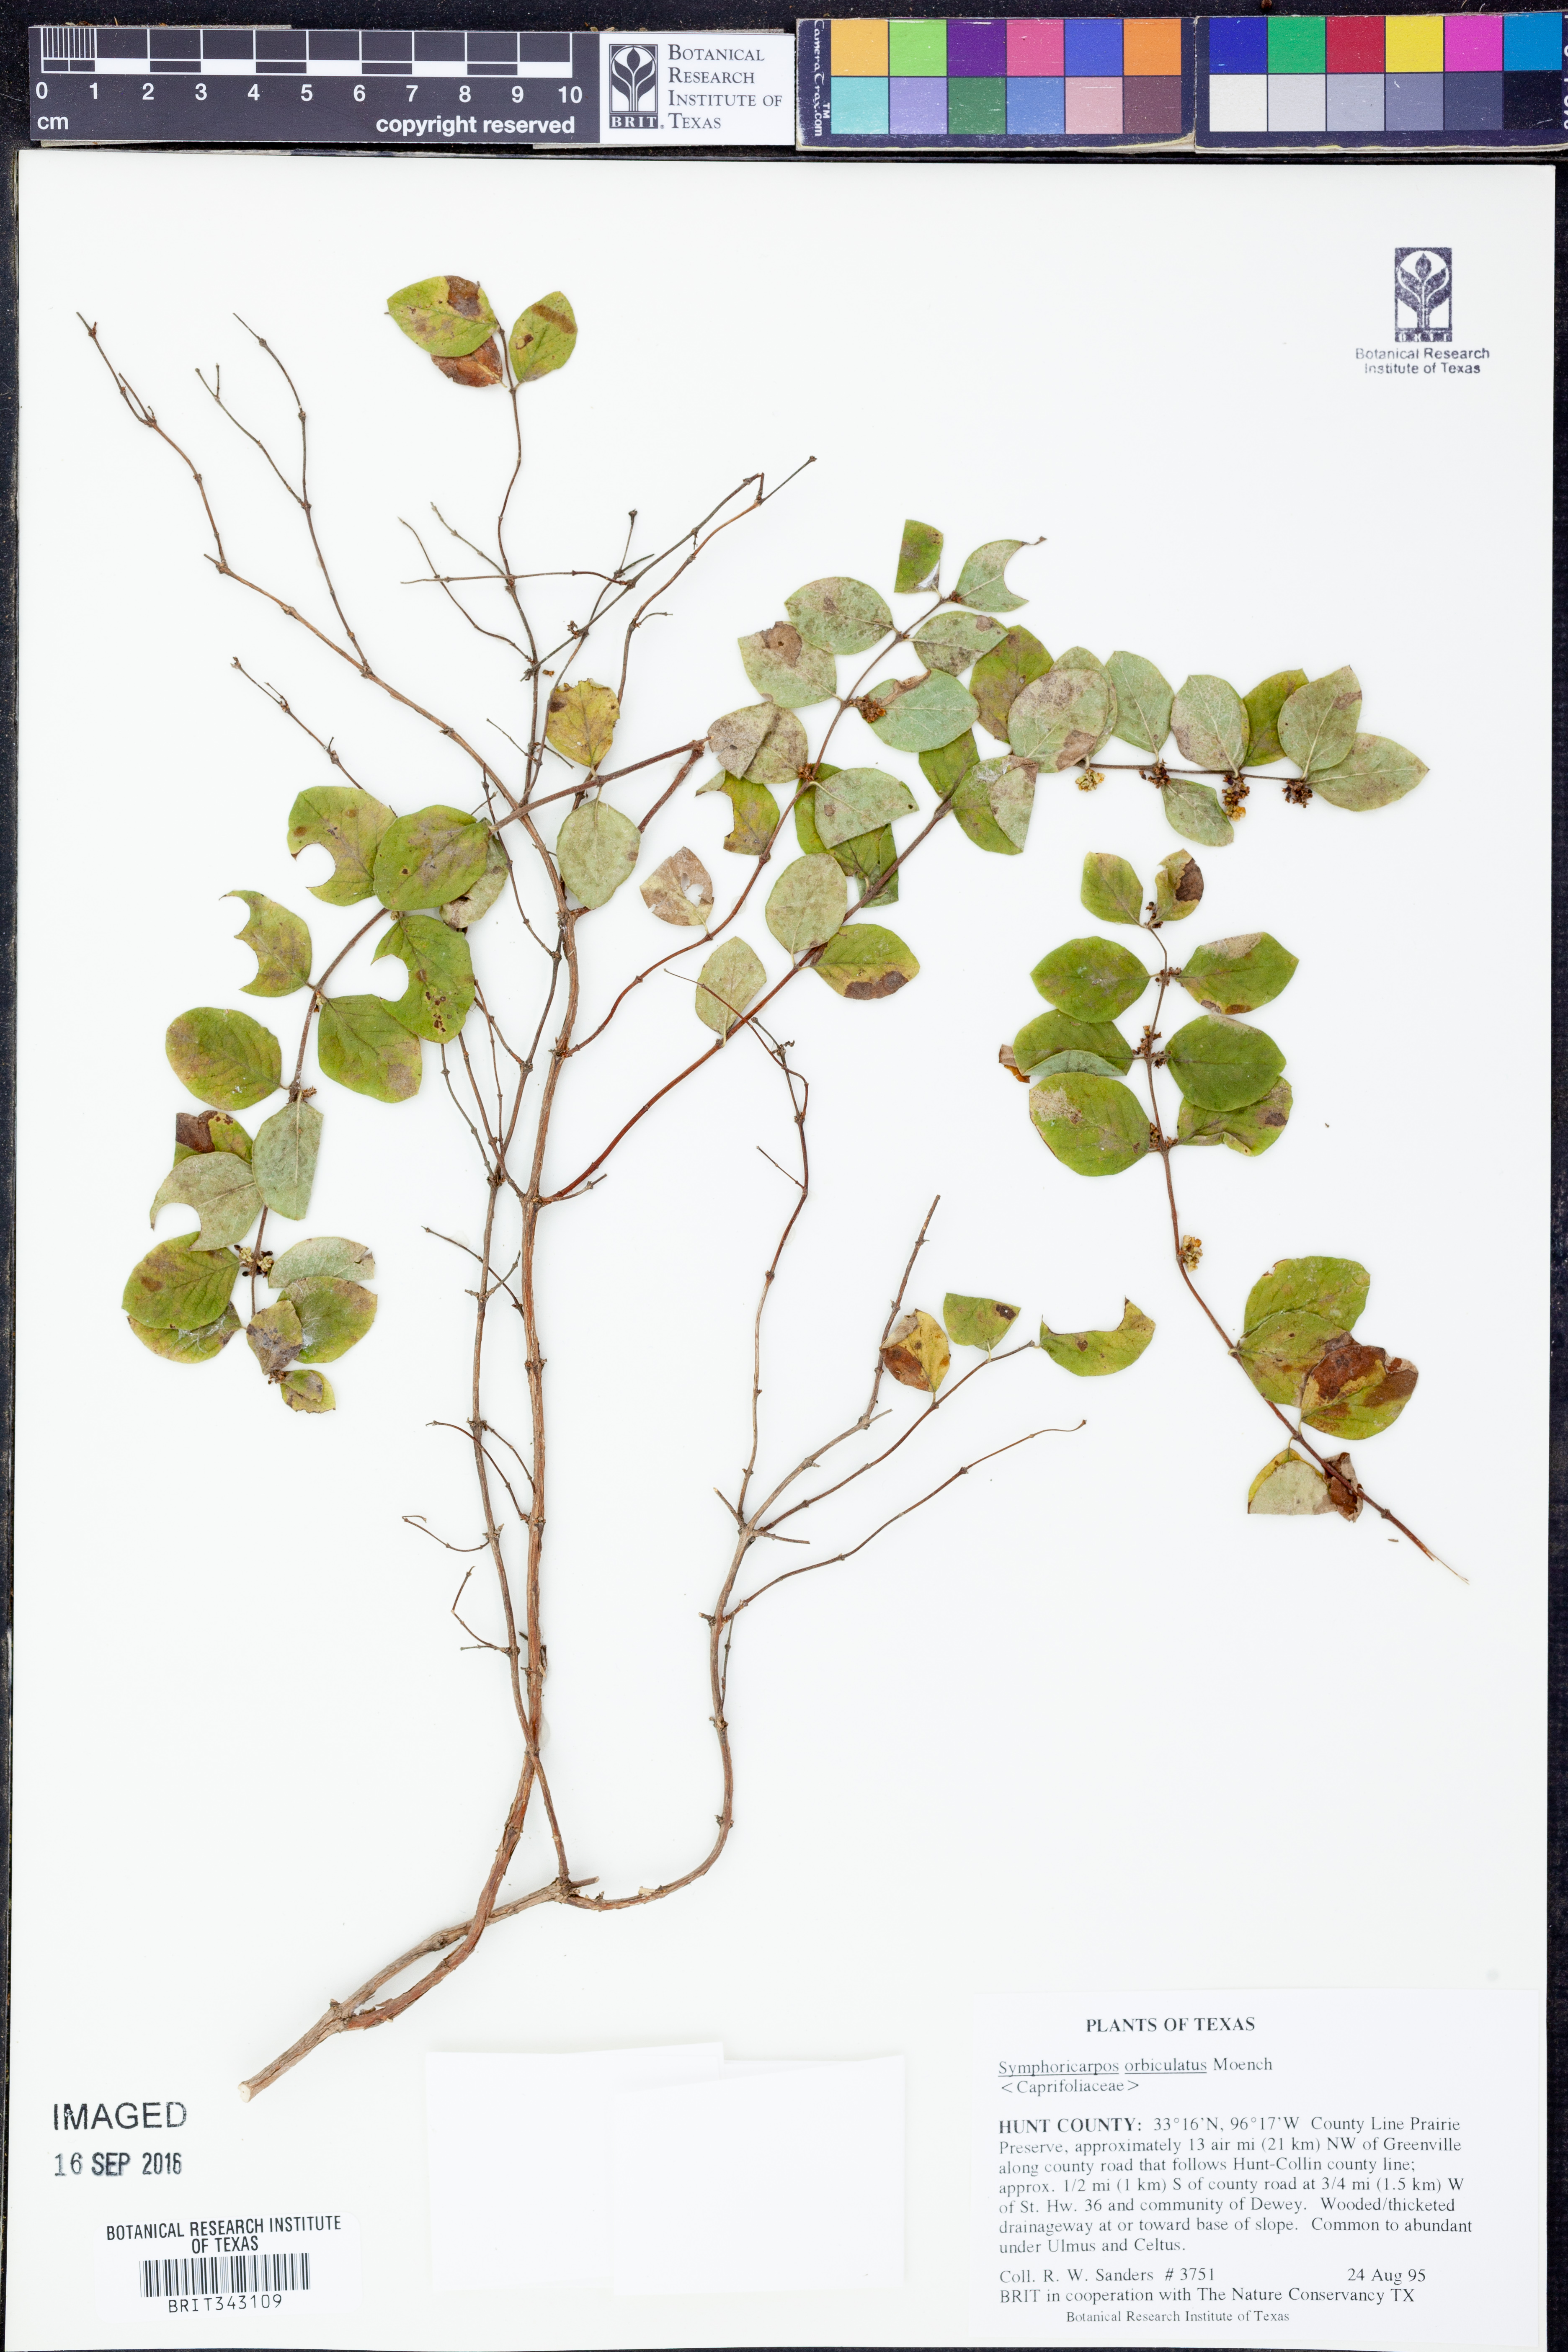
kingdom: Plantae
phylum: Tracheophyta
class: Magnoliopsida
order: Dipsacales
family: Caprifoliaceae
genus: Symphoricarpos
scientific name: Symphoricarpos orbiculatus
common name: Coralberry
